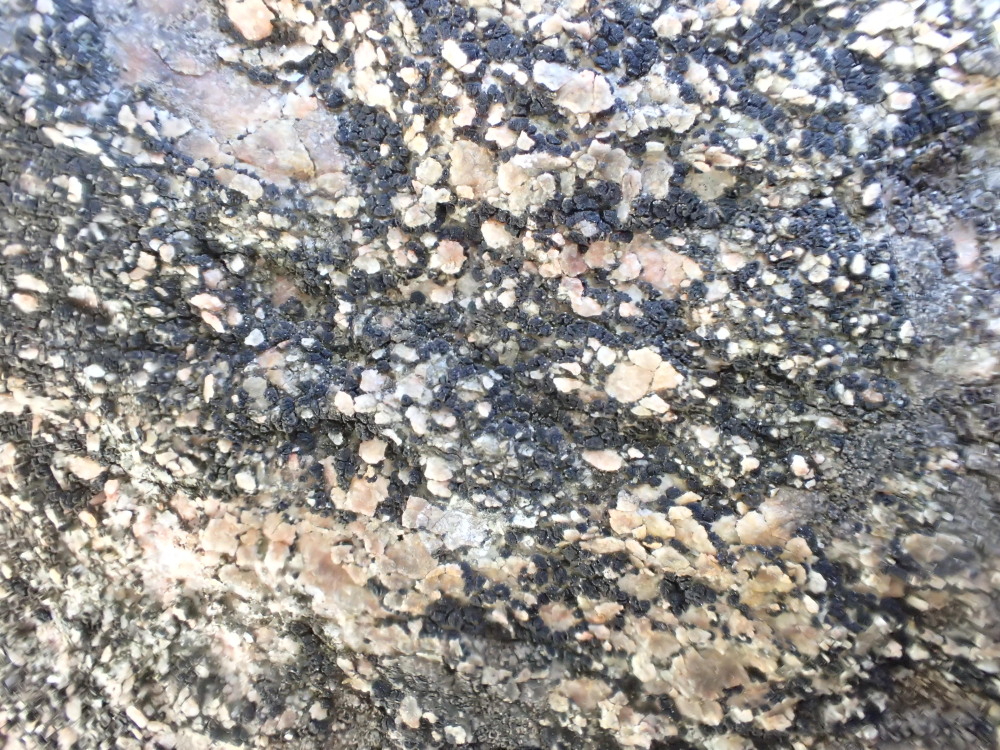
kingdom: Fungi
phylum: Ascomycota
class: Lecanoromycetes
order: Acarosporales
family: Acarosporaceae
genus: Acarospora
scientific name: Acarospora privigna
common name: sort foldekantlav
